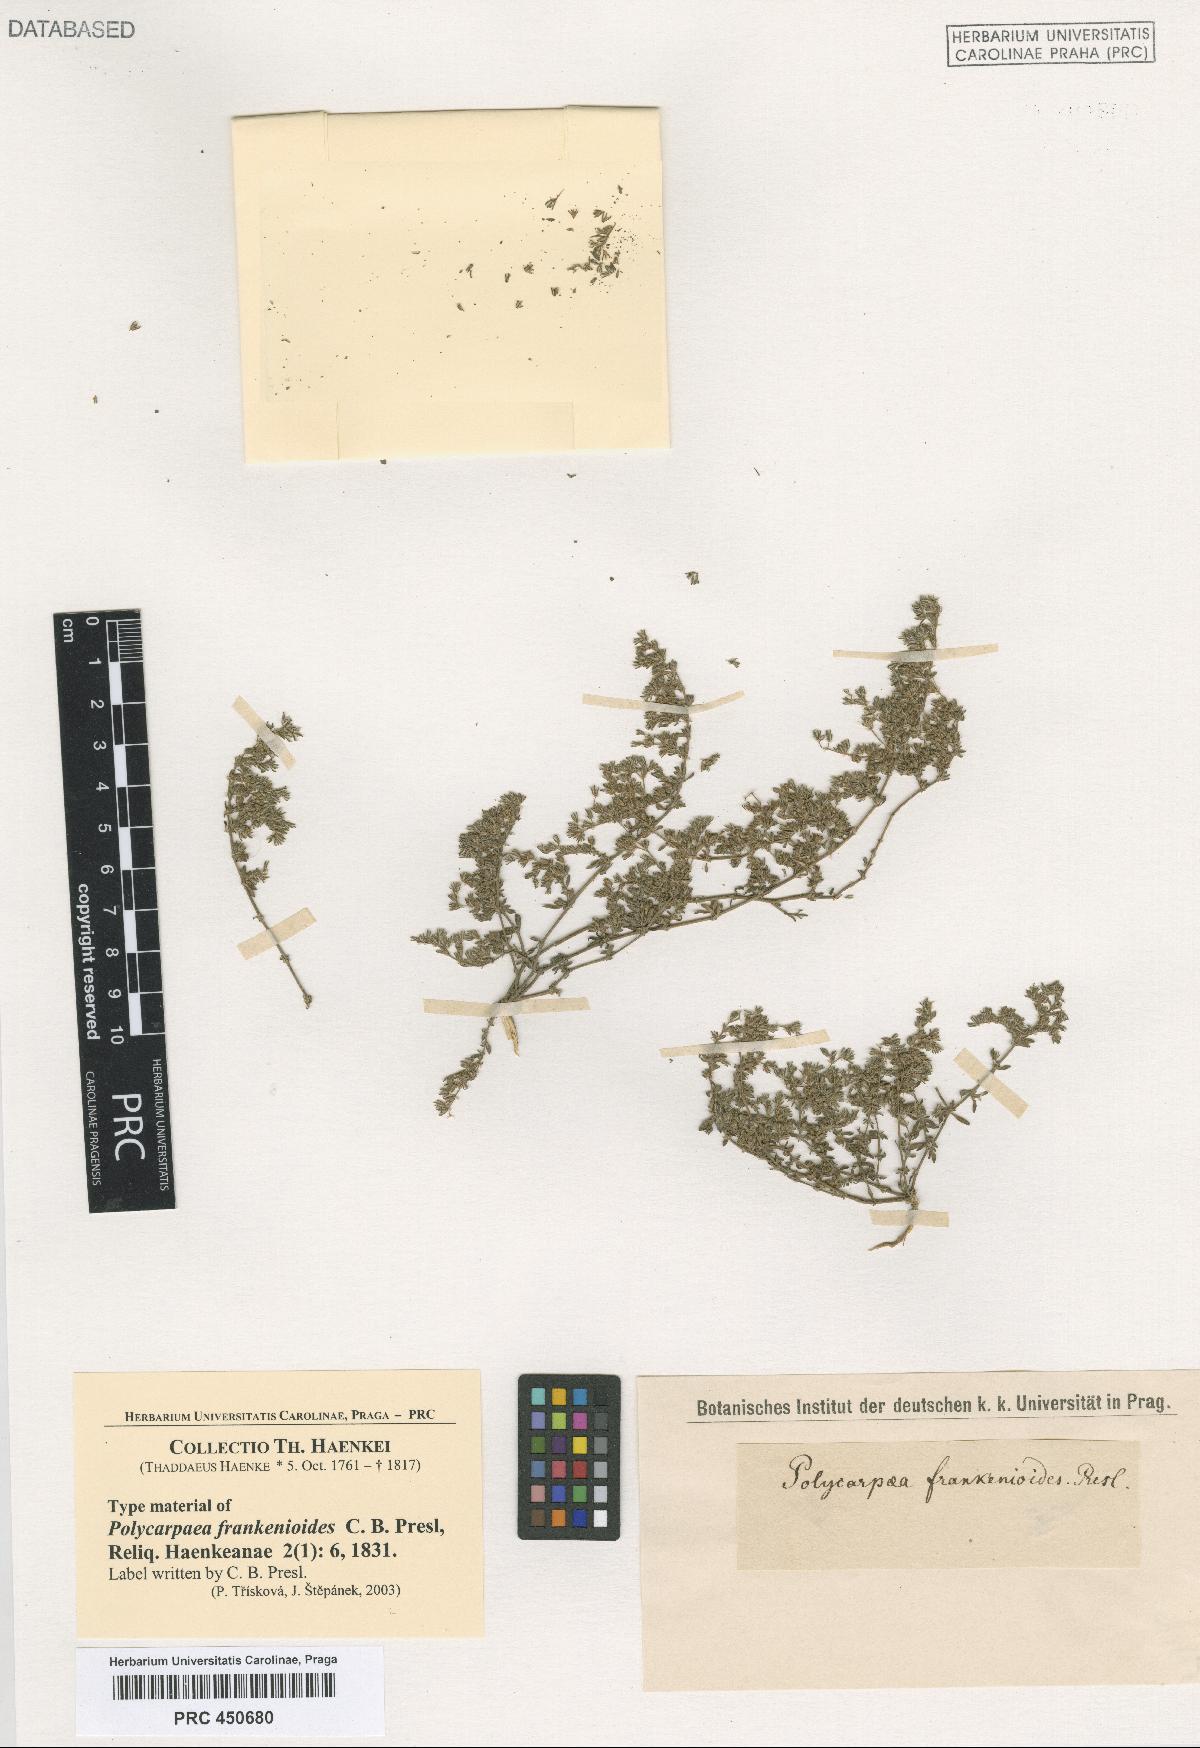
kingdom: Plantae
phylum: Tracheophyta
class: Magnoliopsida
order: Caryophyllales
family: Caryophyllaceae
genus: Polycarpon
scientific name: Polycarpon depressum
